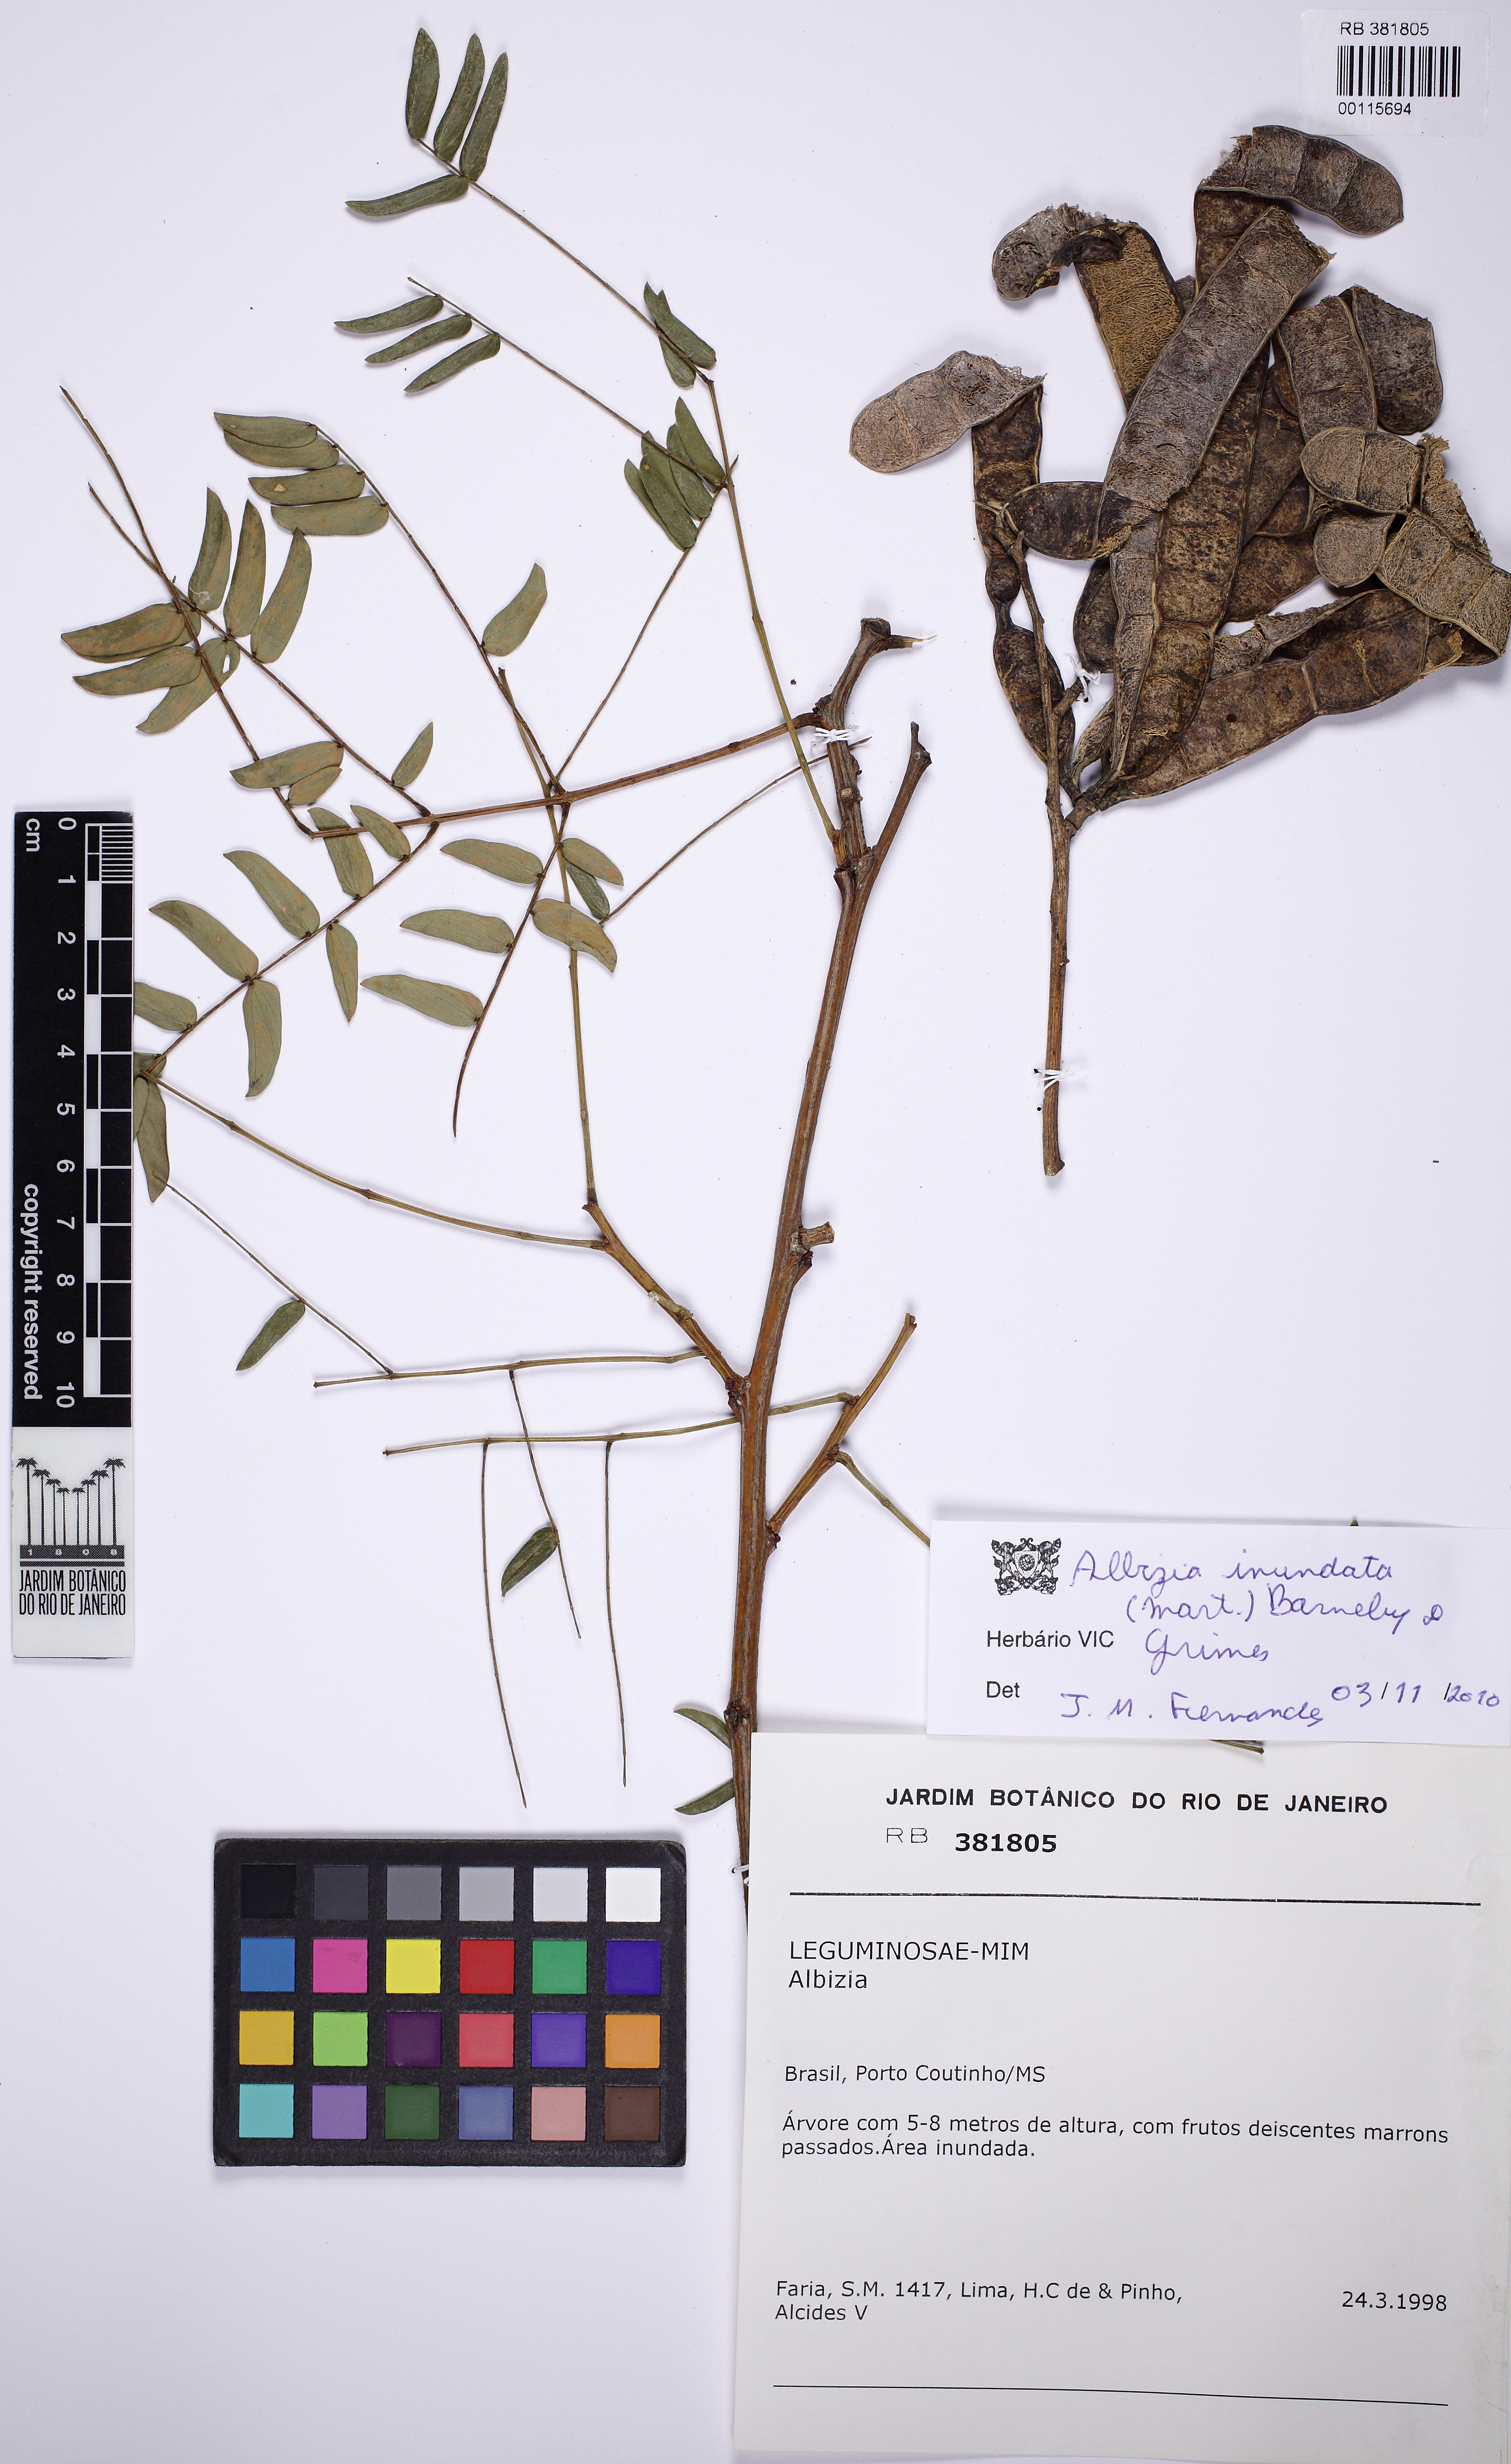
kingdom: Plantae
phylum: Tracheophyta
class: Magnoliopsida
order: Fabales
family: Fabaceae
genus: Albizia
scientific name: Albizia inundata
